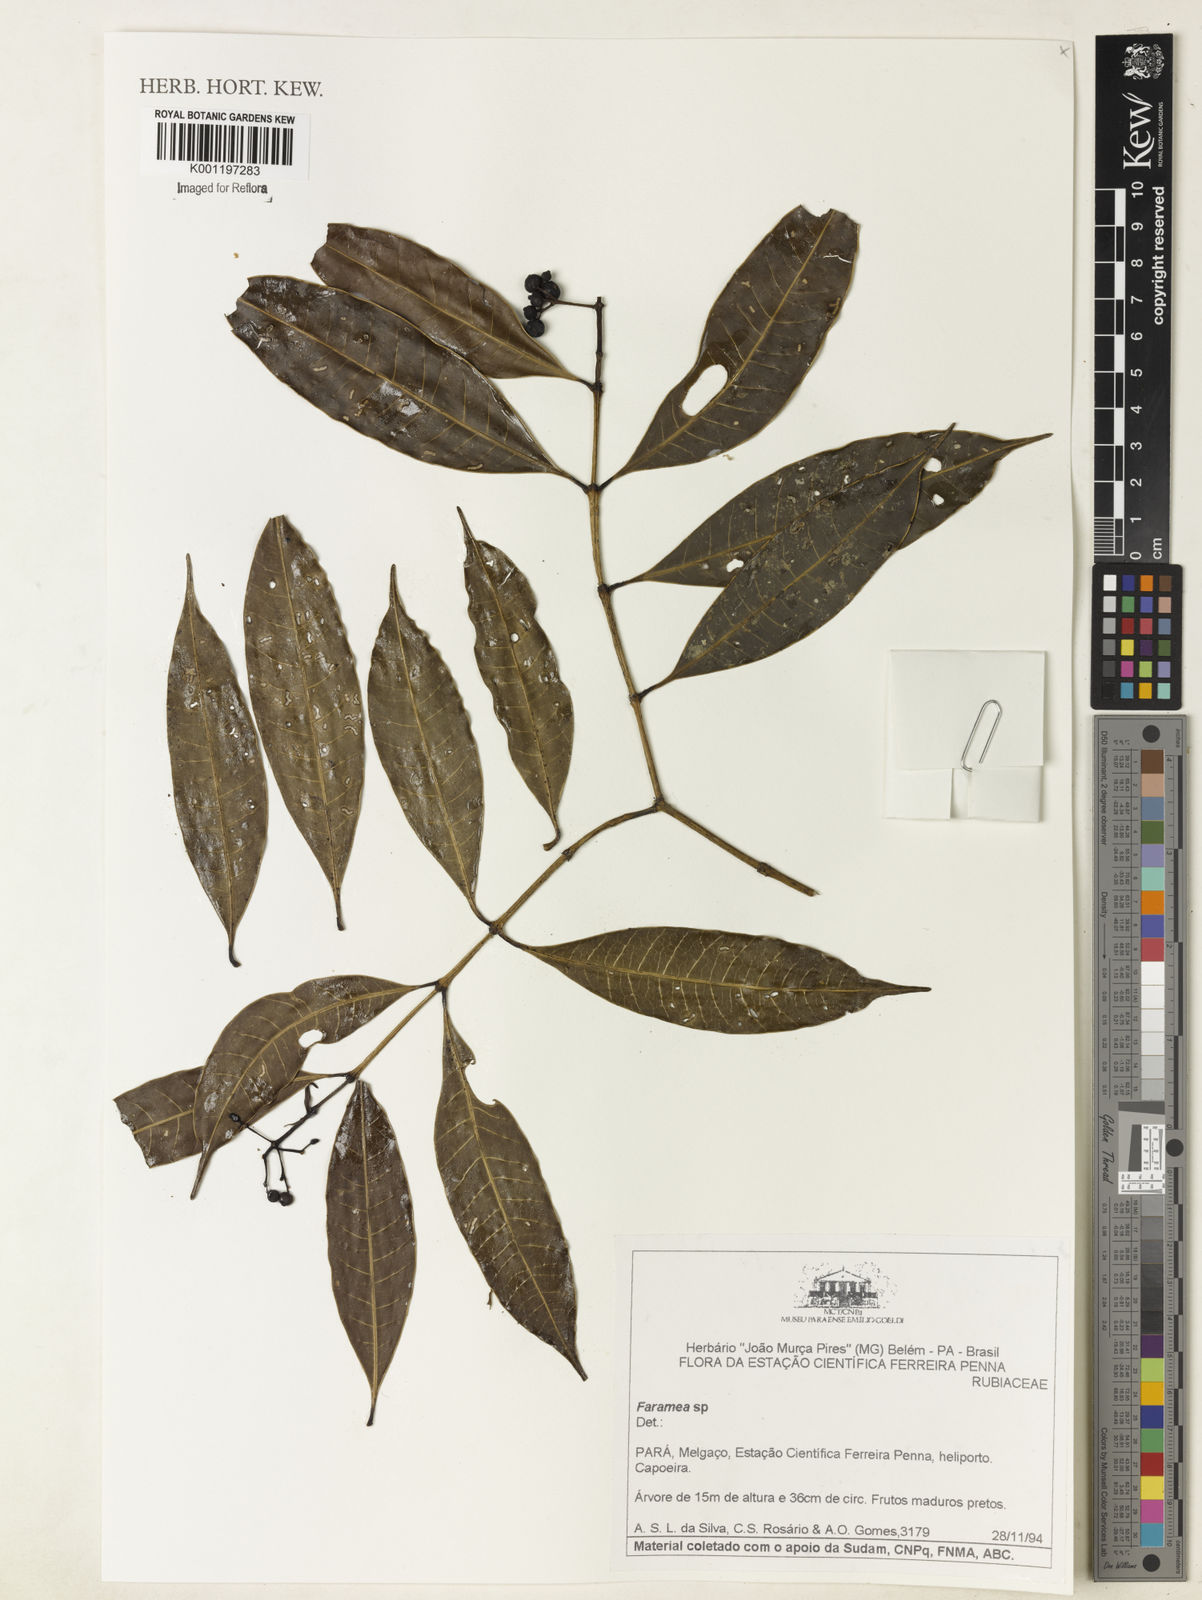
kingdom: Plantae
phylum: Tracheophyta
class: Magnoliopsida
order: Gentianales
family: Rubiaceae
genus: Faramea
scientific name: Faramea
